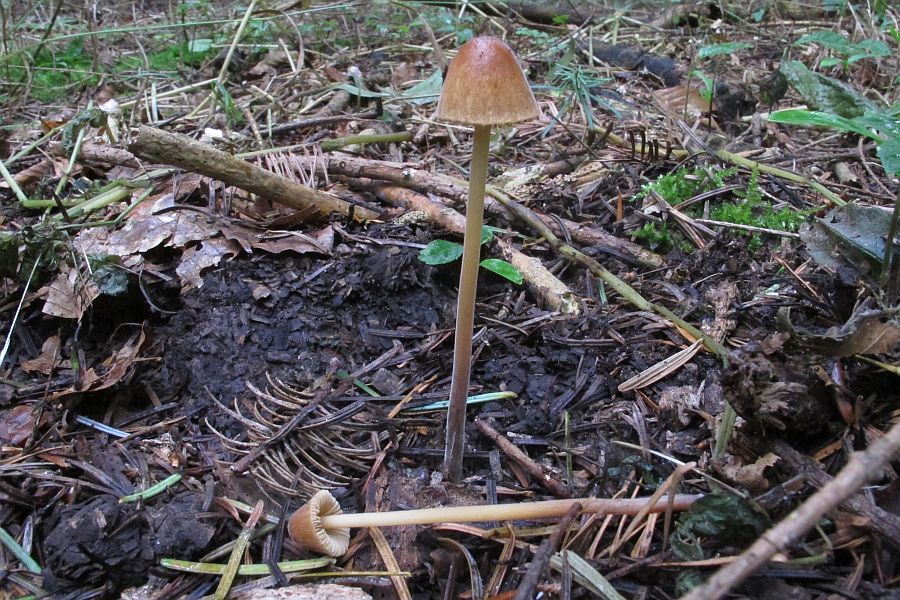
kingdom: Fungi
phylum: Basidiomycota
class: Agaricomycetes
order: Agaricales
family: Bolbitiaceae
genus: Conocybe
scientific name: Conocybe subpubescens
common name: krat-keglehat
